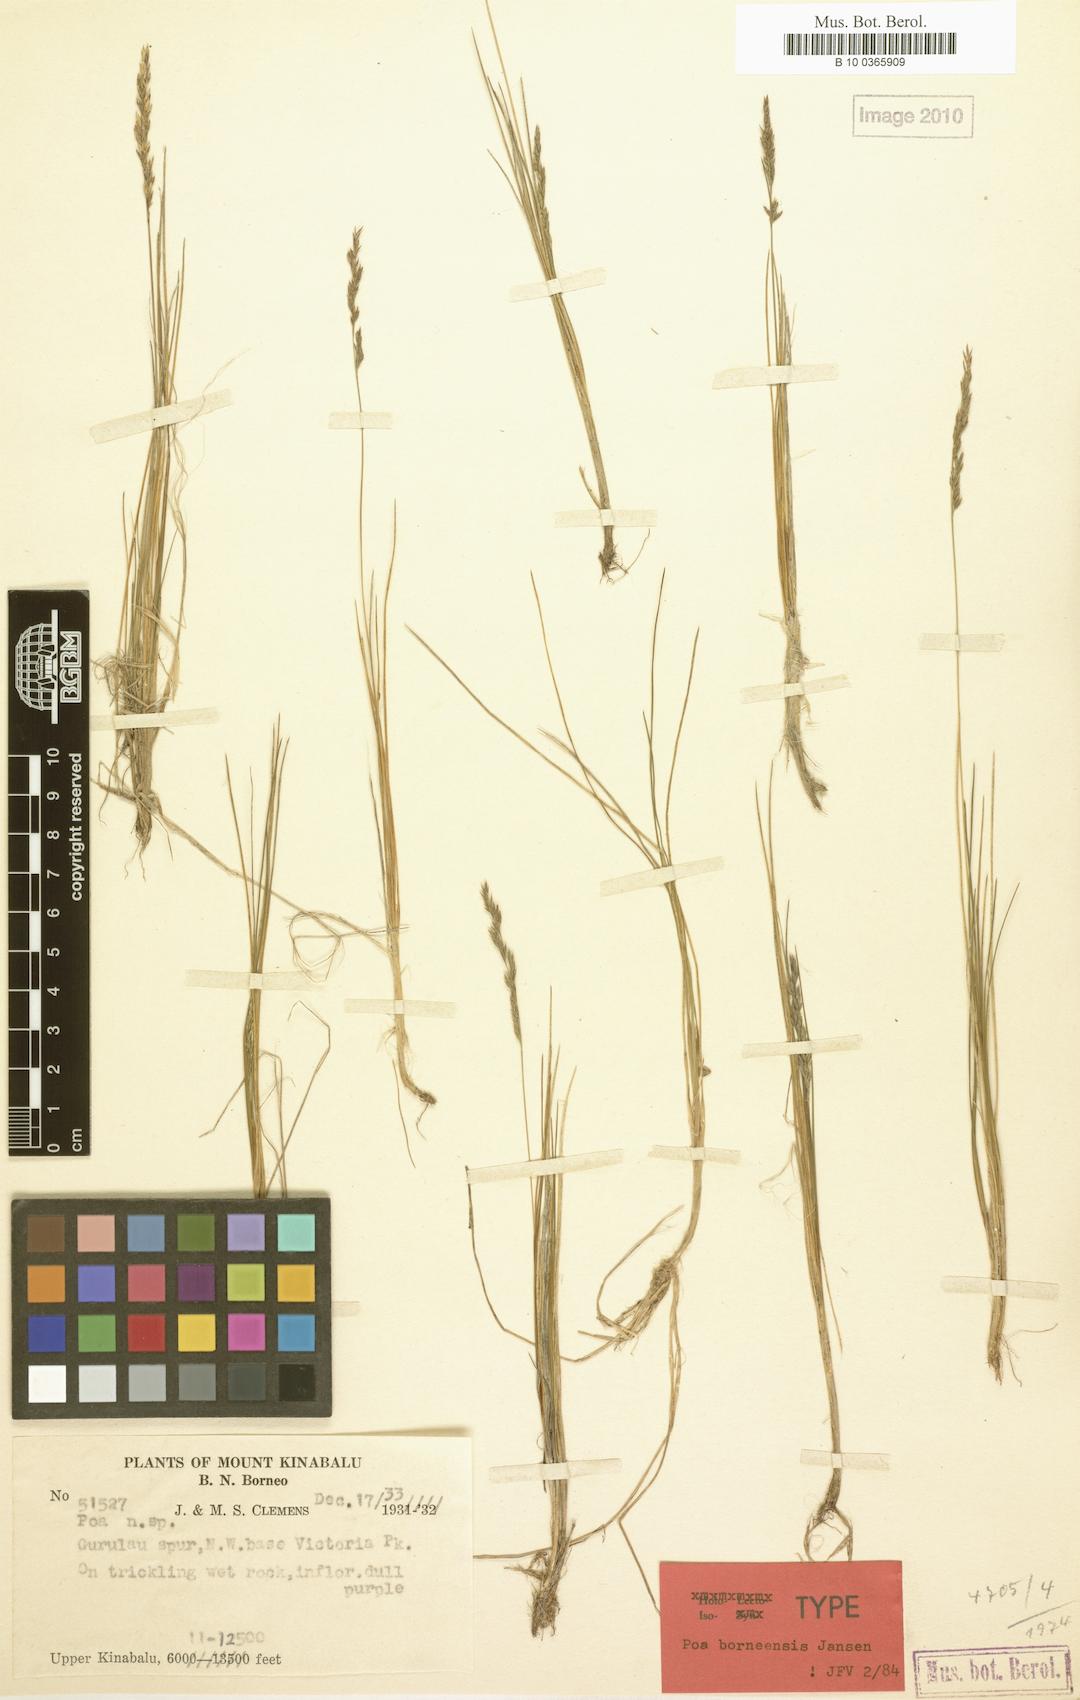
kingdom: Plantae
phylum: Tracheophyta
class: Liliopsida
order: Poales
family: Poaceae
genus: Poa
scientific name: Poa borneensis
